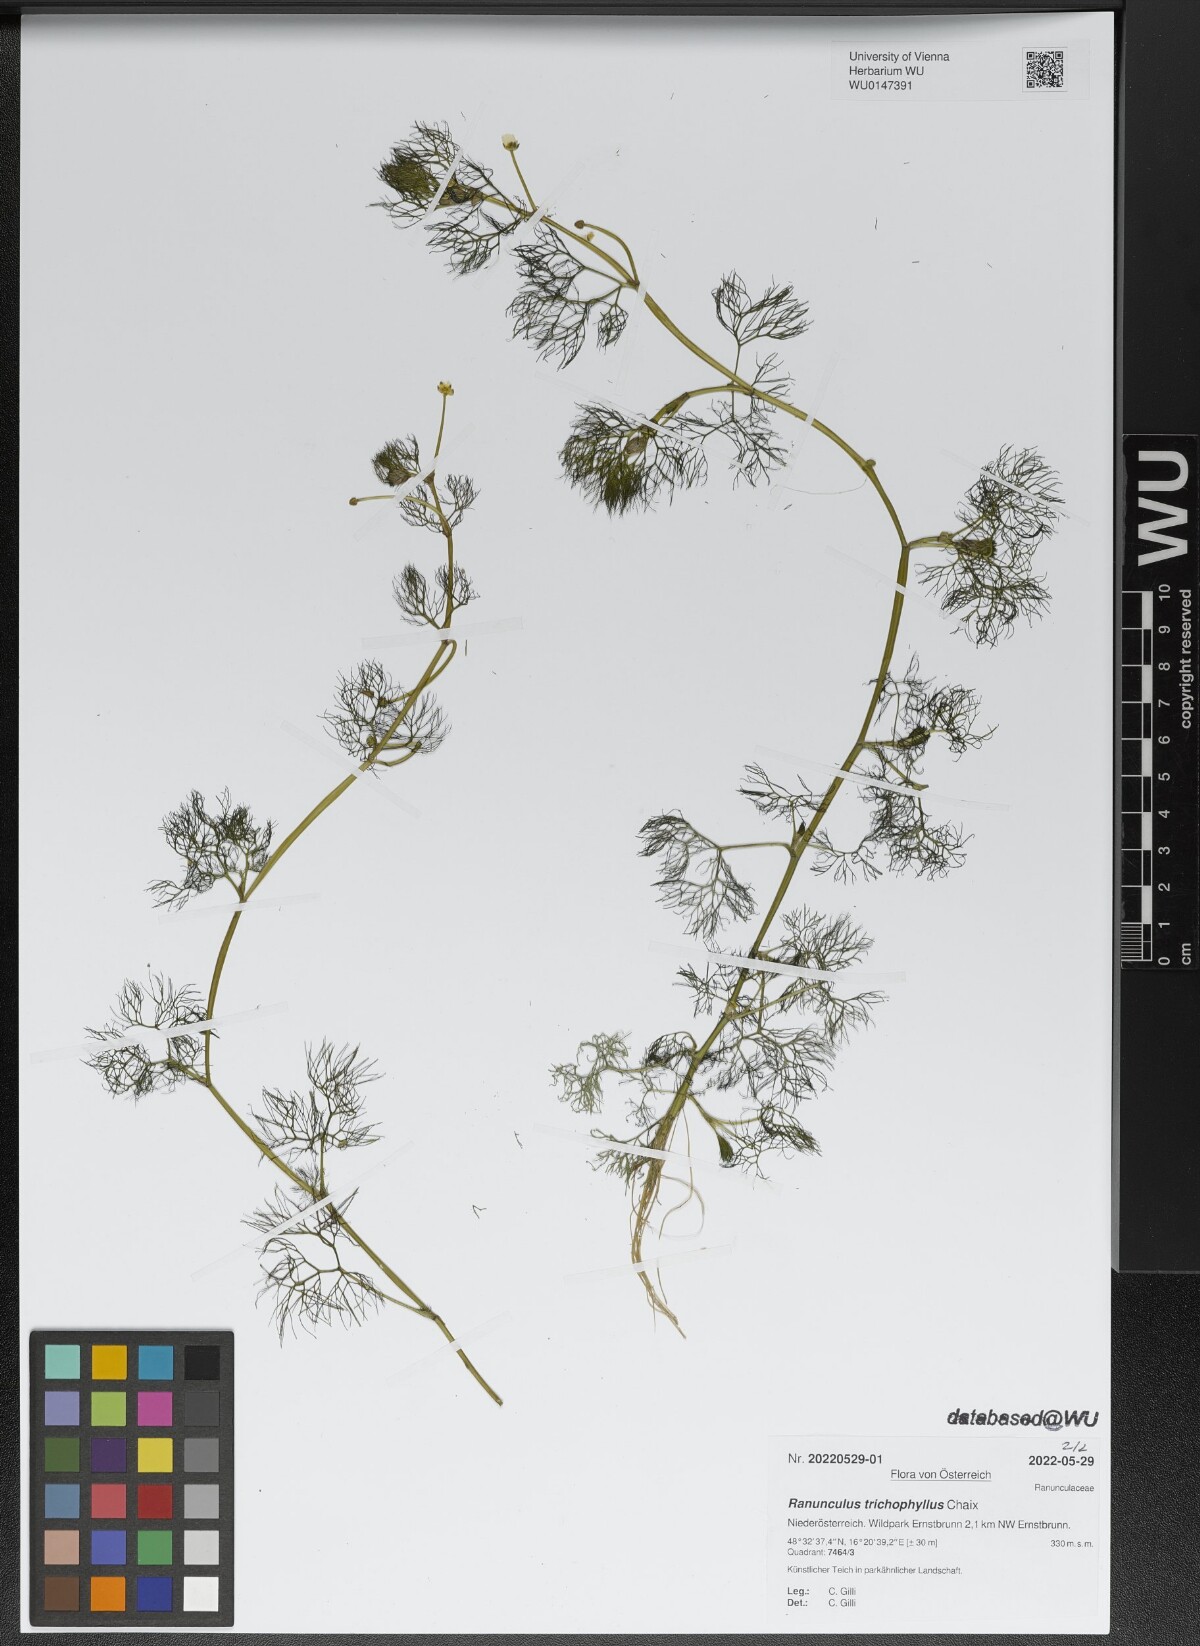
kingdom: Plantae
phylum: Tracheophyta
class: Magnoliopsida
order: Ranunculales
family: Ranunculaceae
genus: Ranunculus
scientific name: Ranunculus trichophyllus
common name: Thread-leaved water-crowfoot
